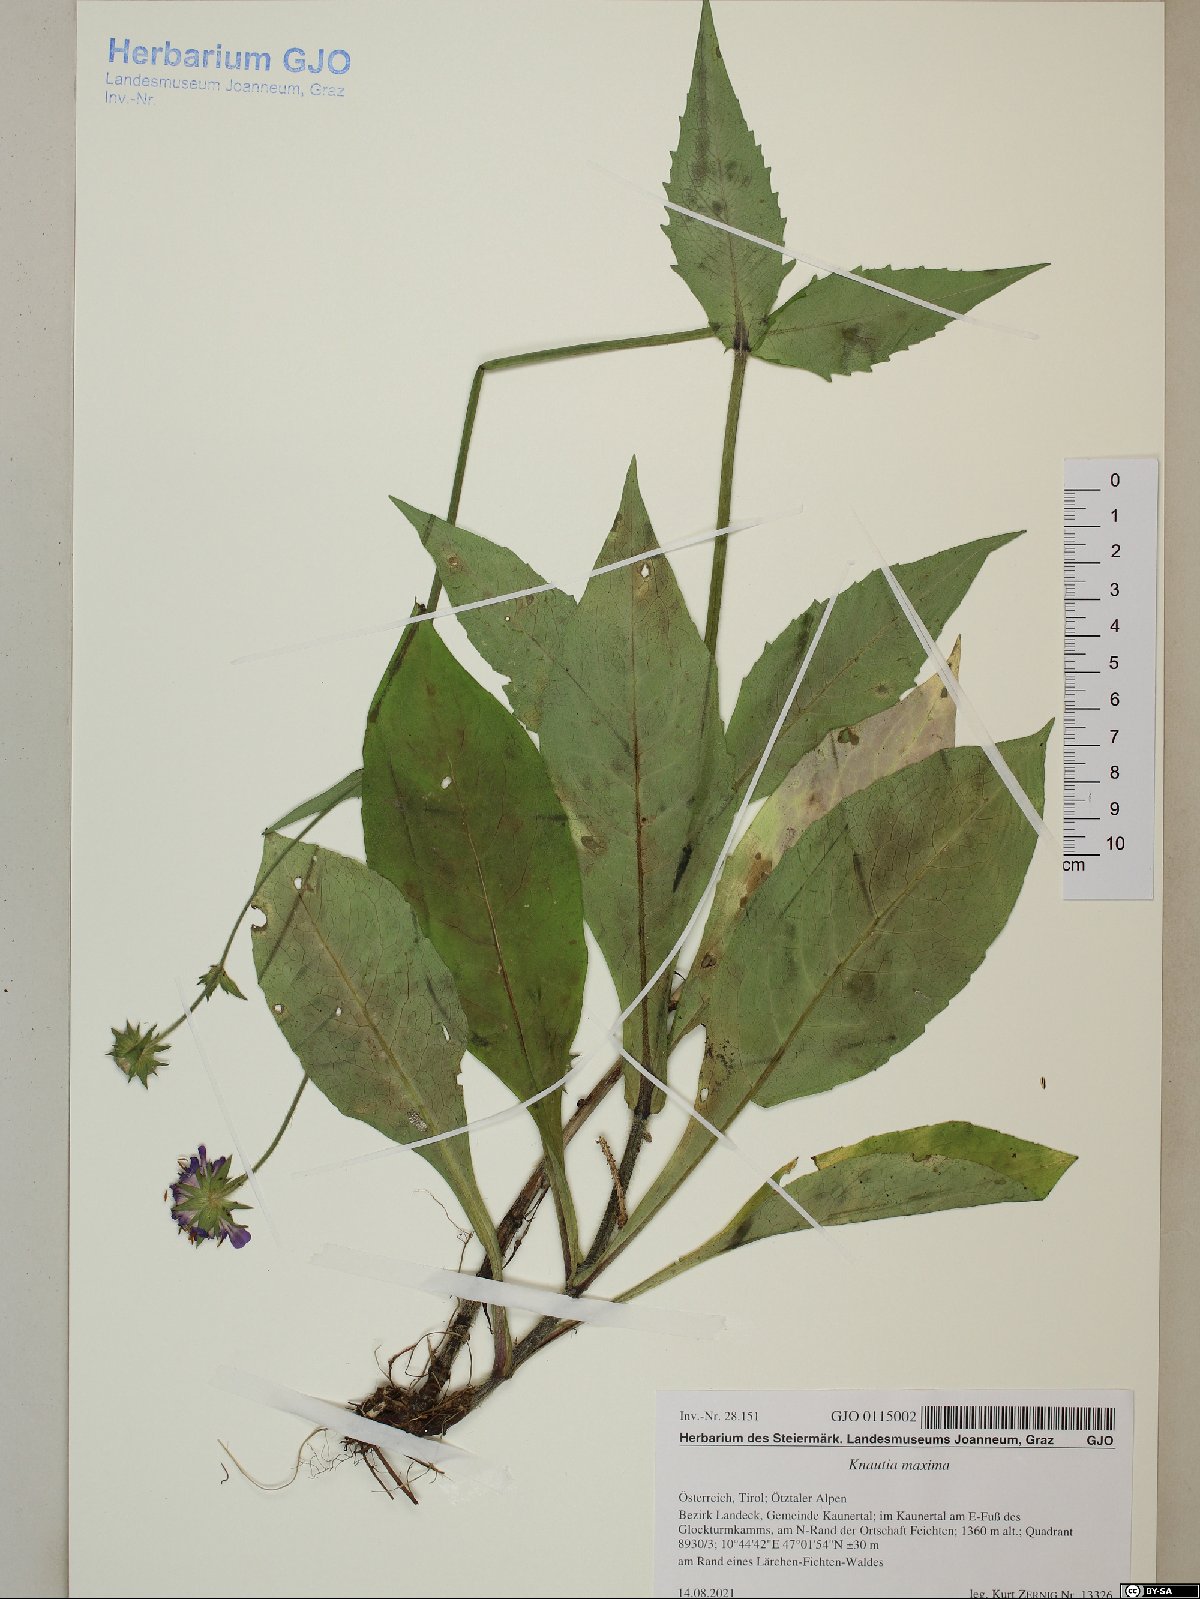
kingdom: Plantae
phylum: Tracheophyta
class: Magnoliopsida
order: Dipsacales
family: Caprifoliaceae
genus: Knautia
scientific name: Knautia dipsacifolia
